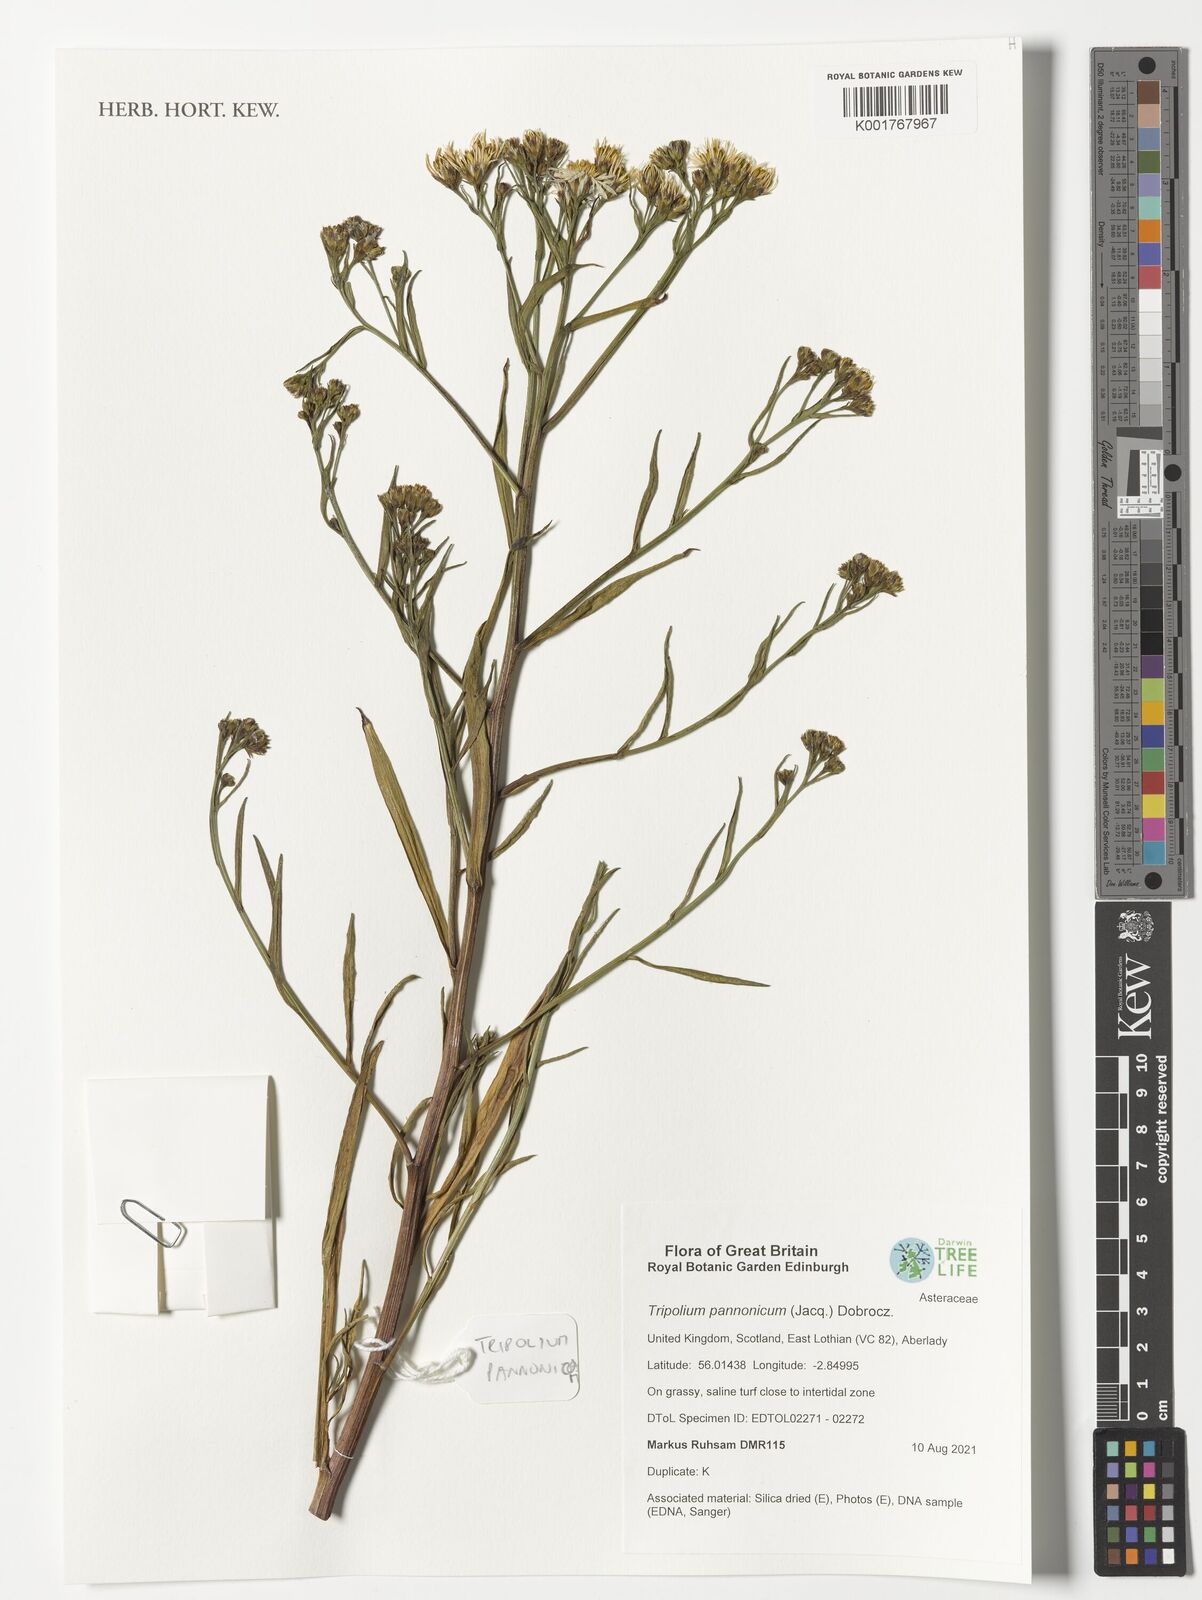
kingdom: Plantae
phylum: Tracheophyta
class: Magnoliopsida
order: Asterales
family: Asteraceae
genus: Tripolium
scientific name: Tripolium pannonicum
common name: Sea aster
